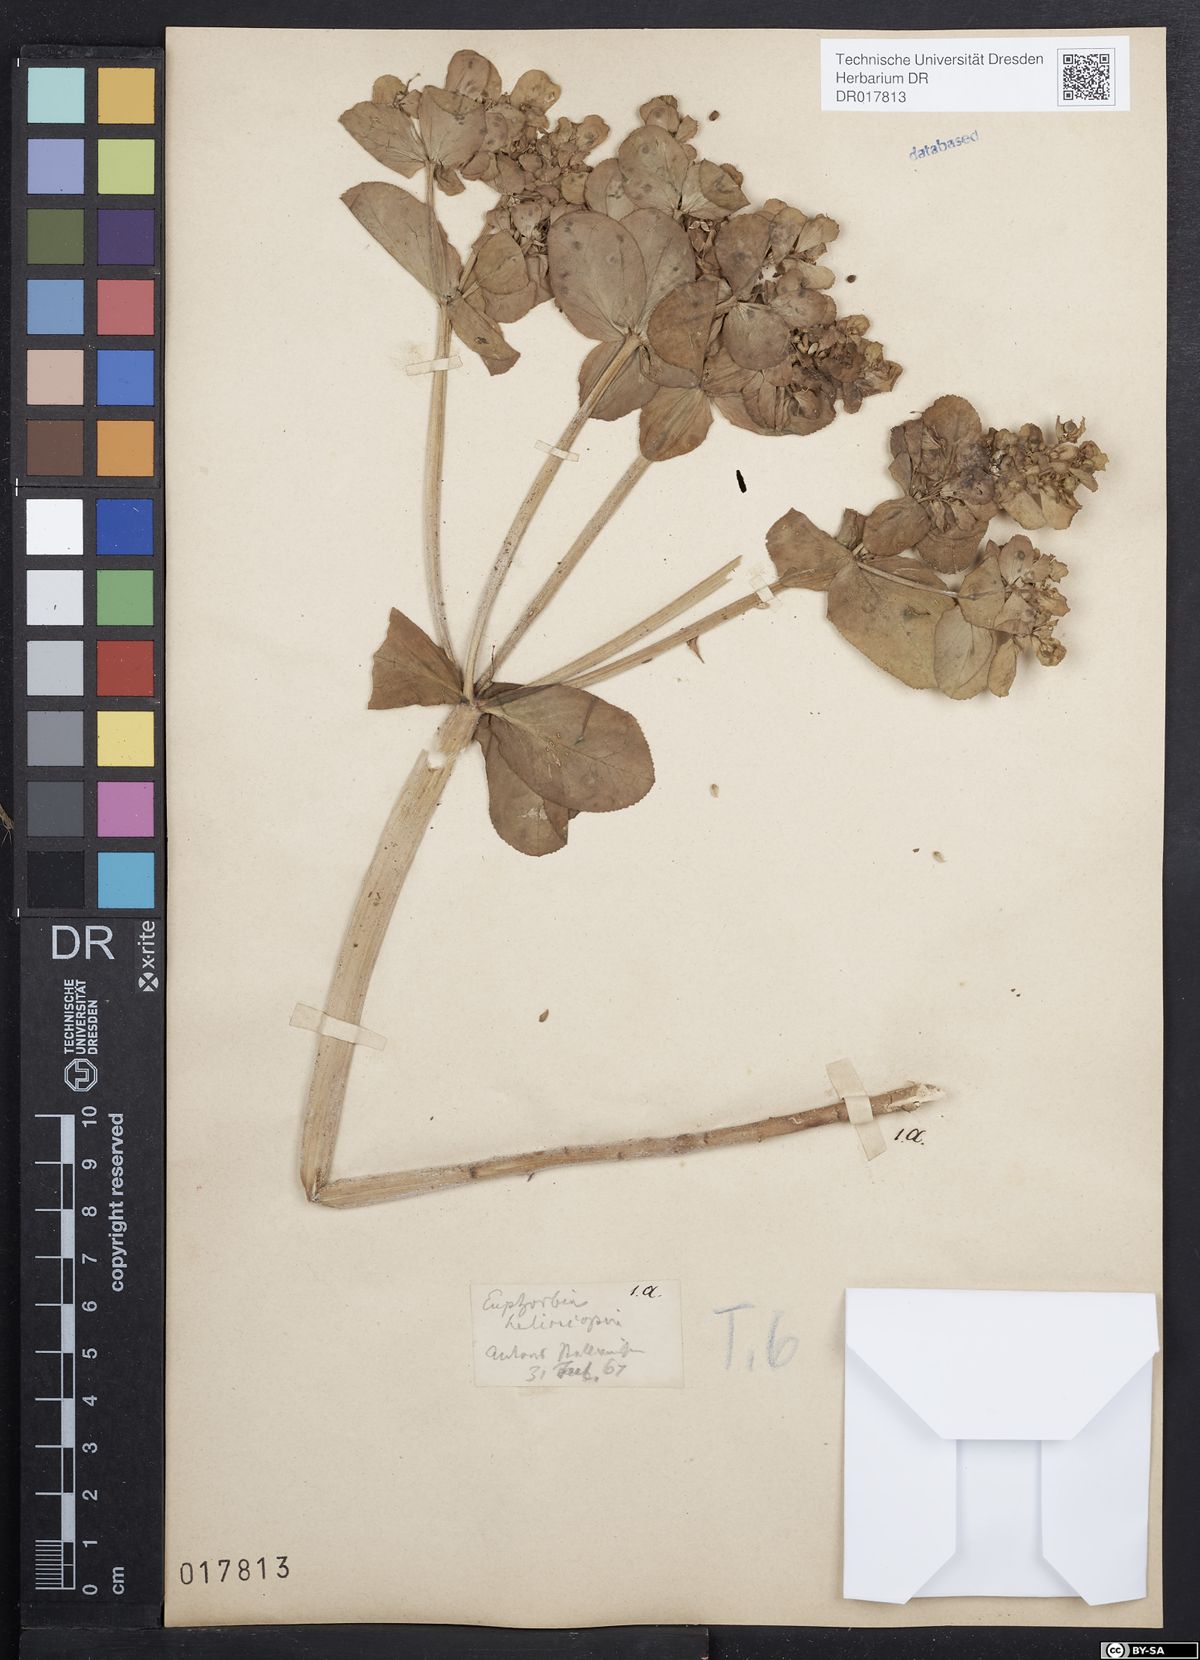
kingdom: Plantae
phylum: Tracheophyta
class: Magnoliopsida
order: Malpighiales
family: Euphorbiaceae
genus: Euphorbia
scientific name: Euphorbia helioscopia
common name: Sun spurge
